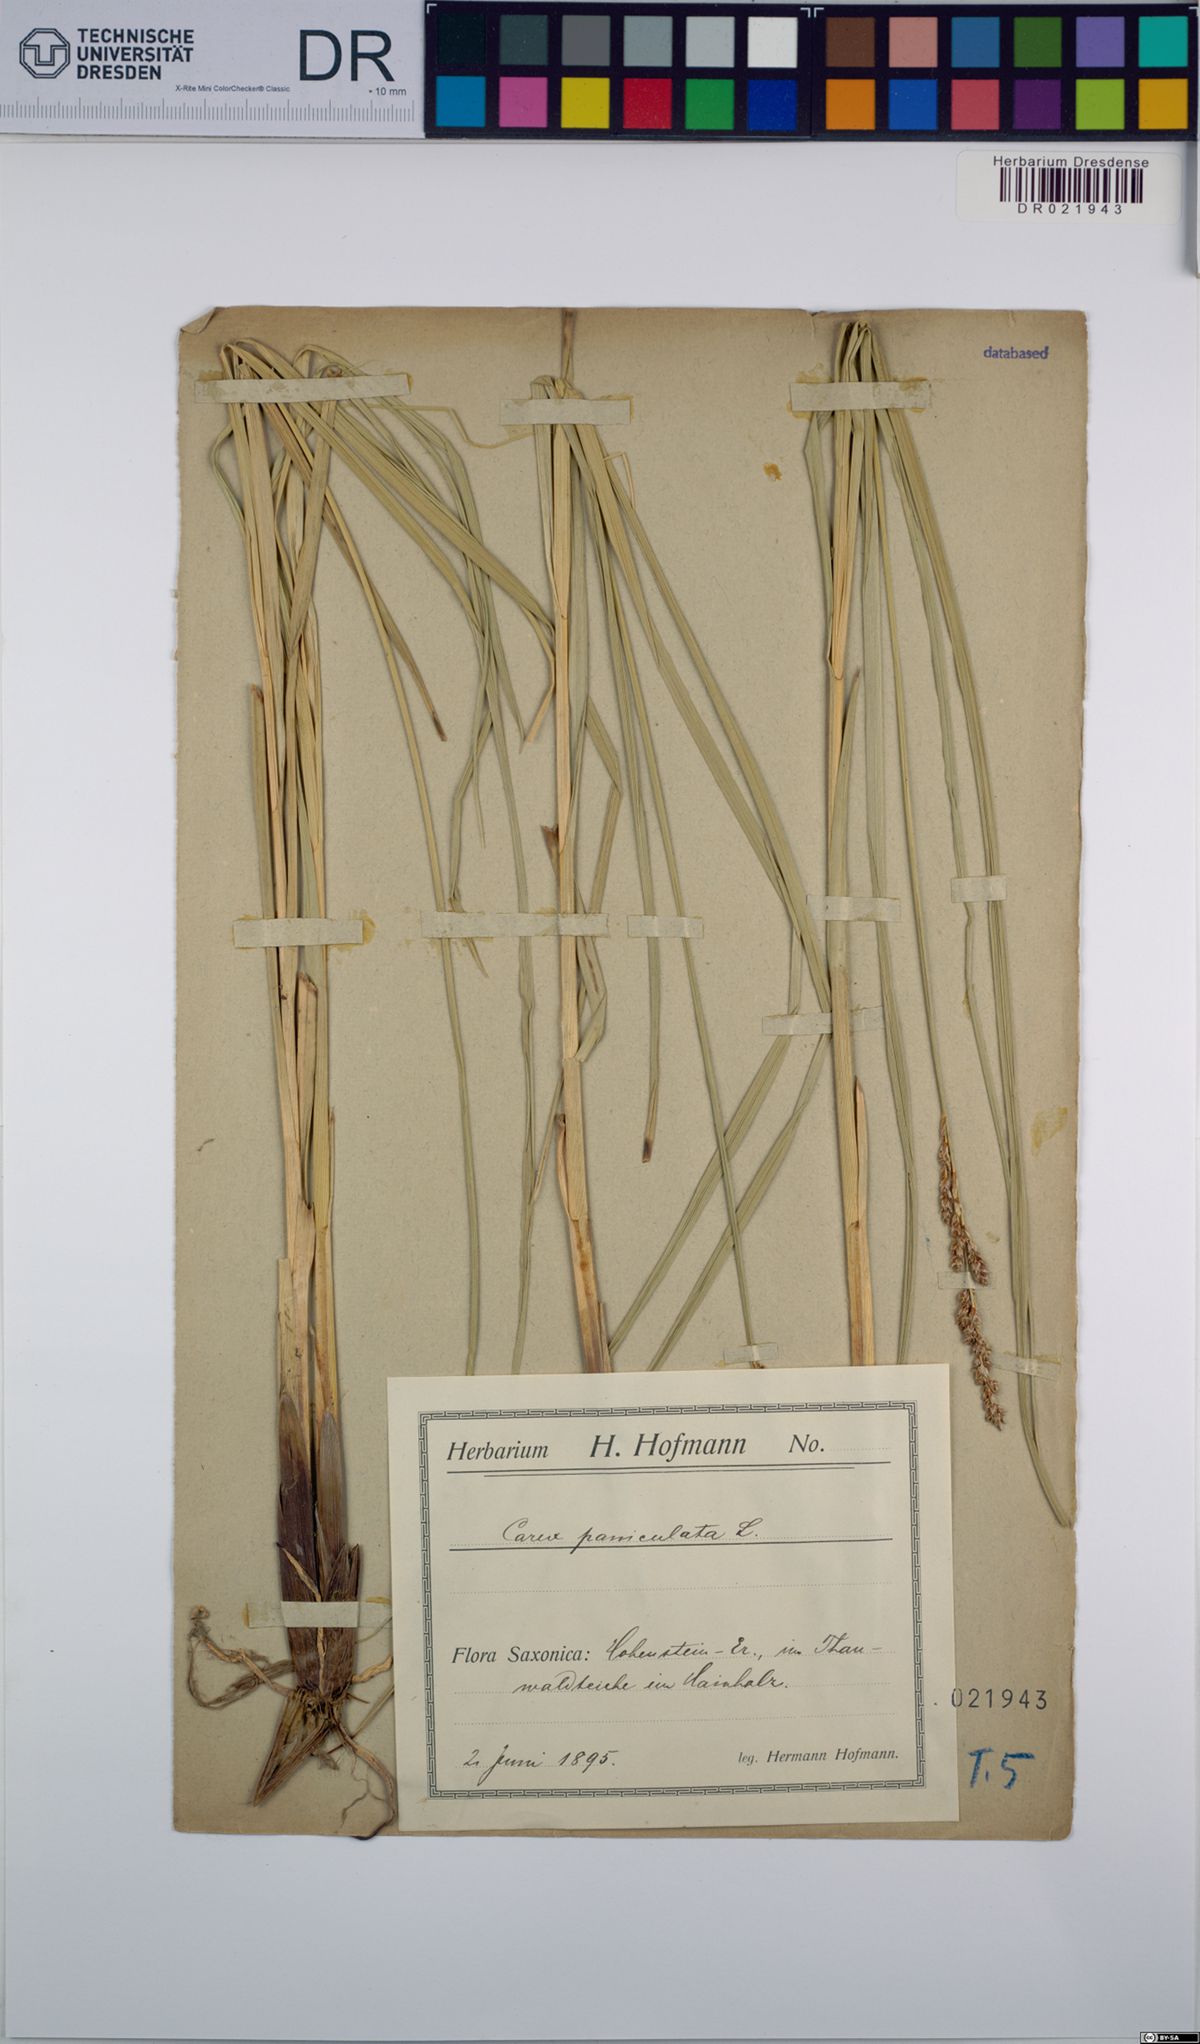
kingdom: Plantae
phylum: Tracheophyta
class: Liliopsida
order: Poales
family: Cyperaceae
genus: Carex
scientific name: Carex paniculata
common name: Greater tussock-sedge
